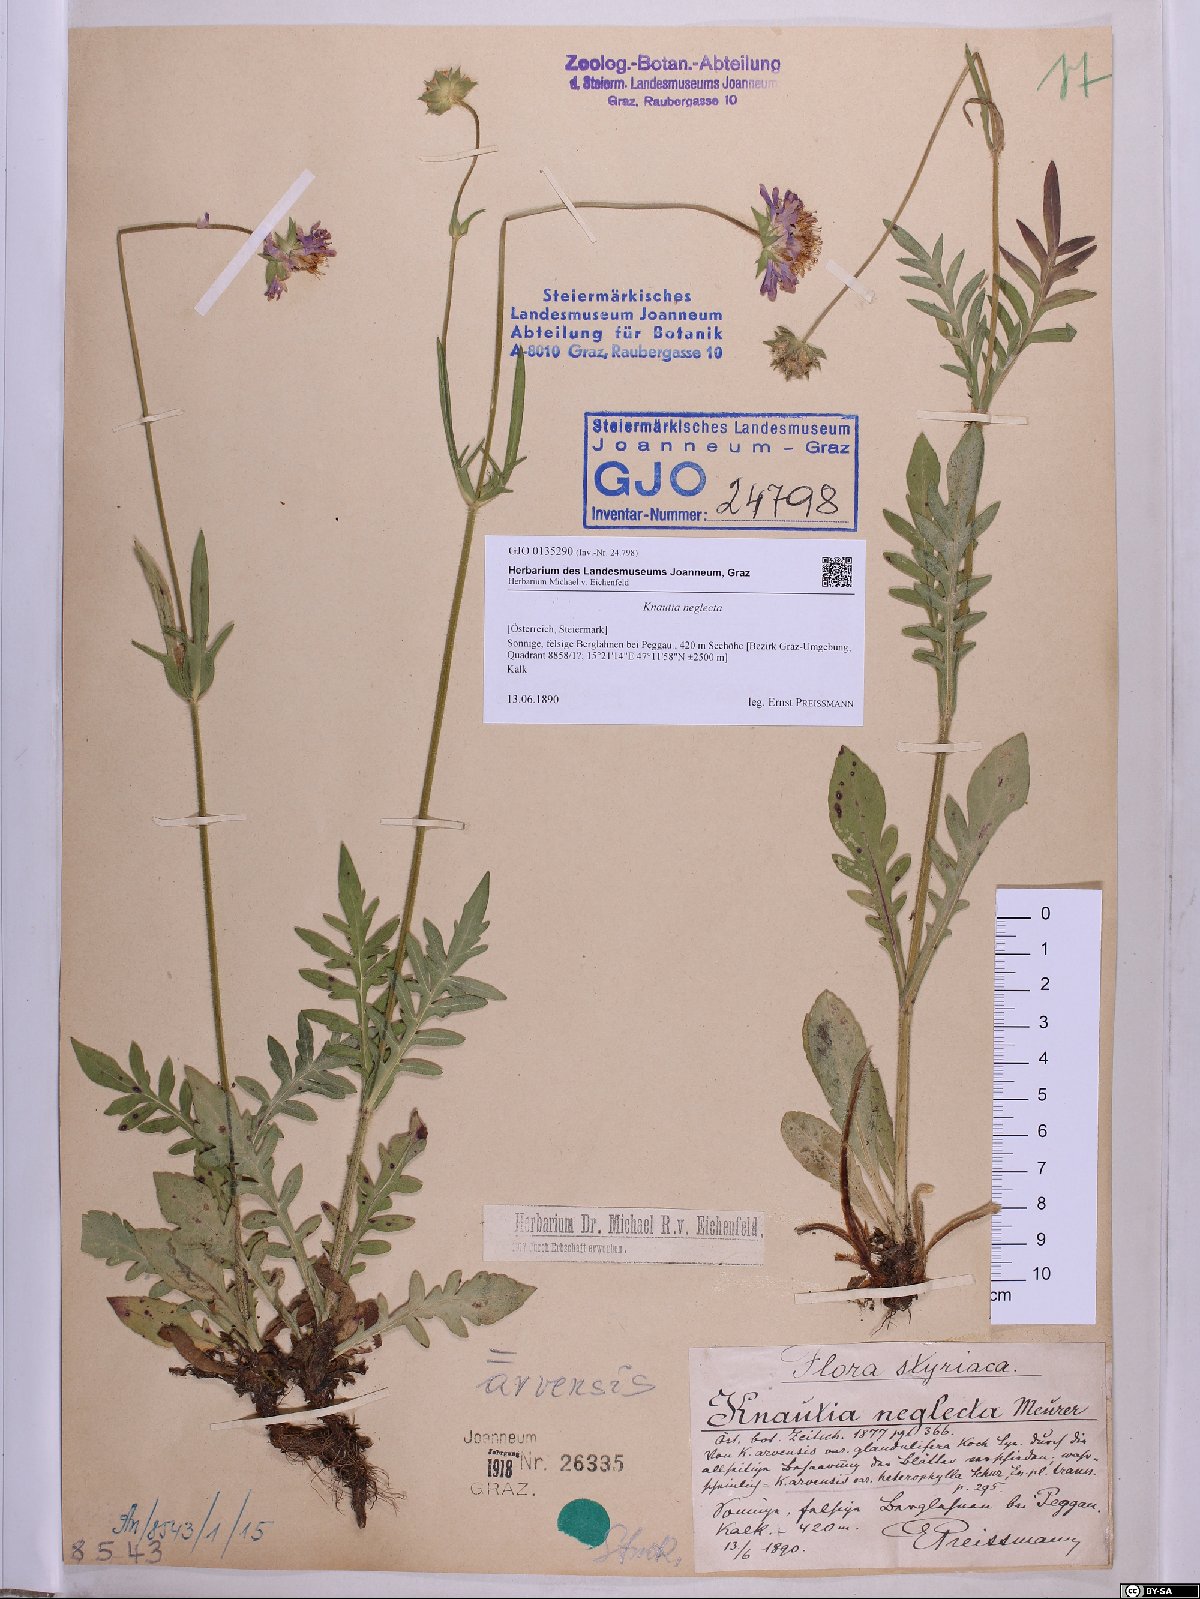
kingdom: Plantae
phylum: Tracheophyta
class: Magnoliopsida
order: Dipsacales
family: Caprifoliaceae
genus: Knautia
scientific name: Knautia arvensis
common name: Field scabiosa
